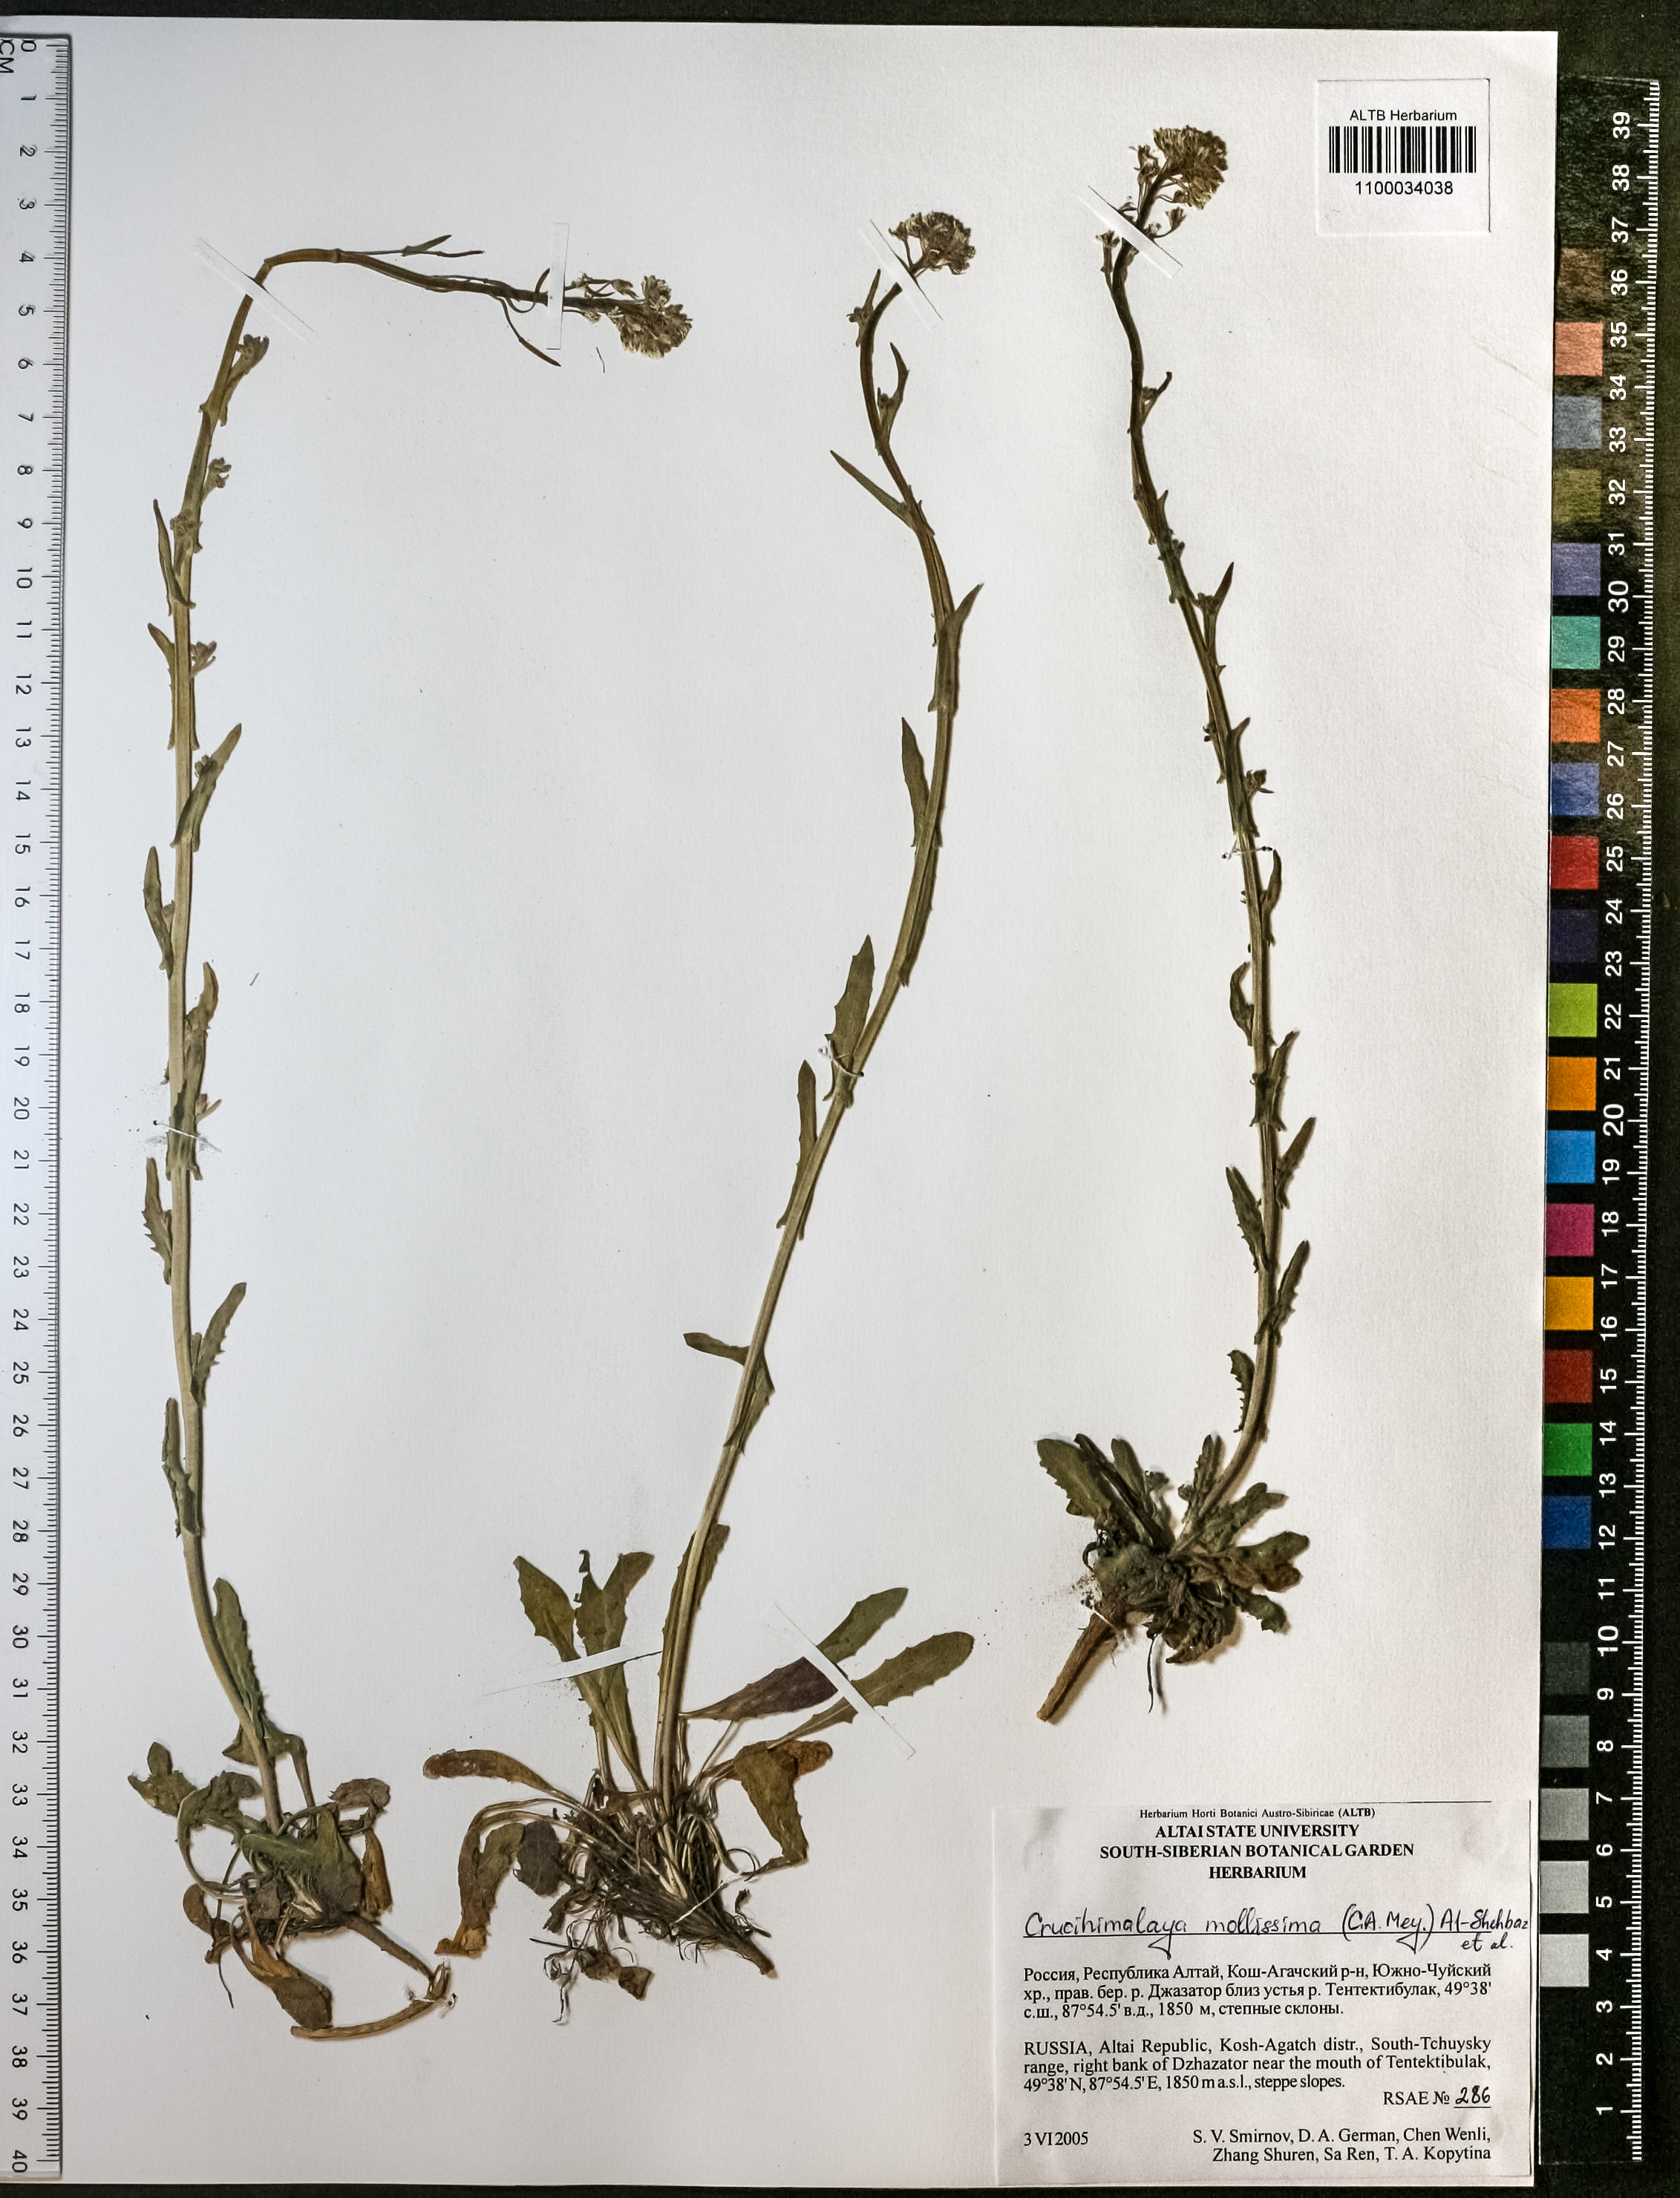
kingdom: Plantae
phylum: Tracheophyta
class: Magnoliopsida
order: Brassicales
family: Brassicaceae
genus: Crucihimalaya
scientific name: Crucihimalaya mollissima
